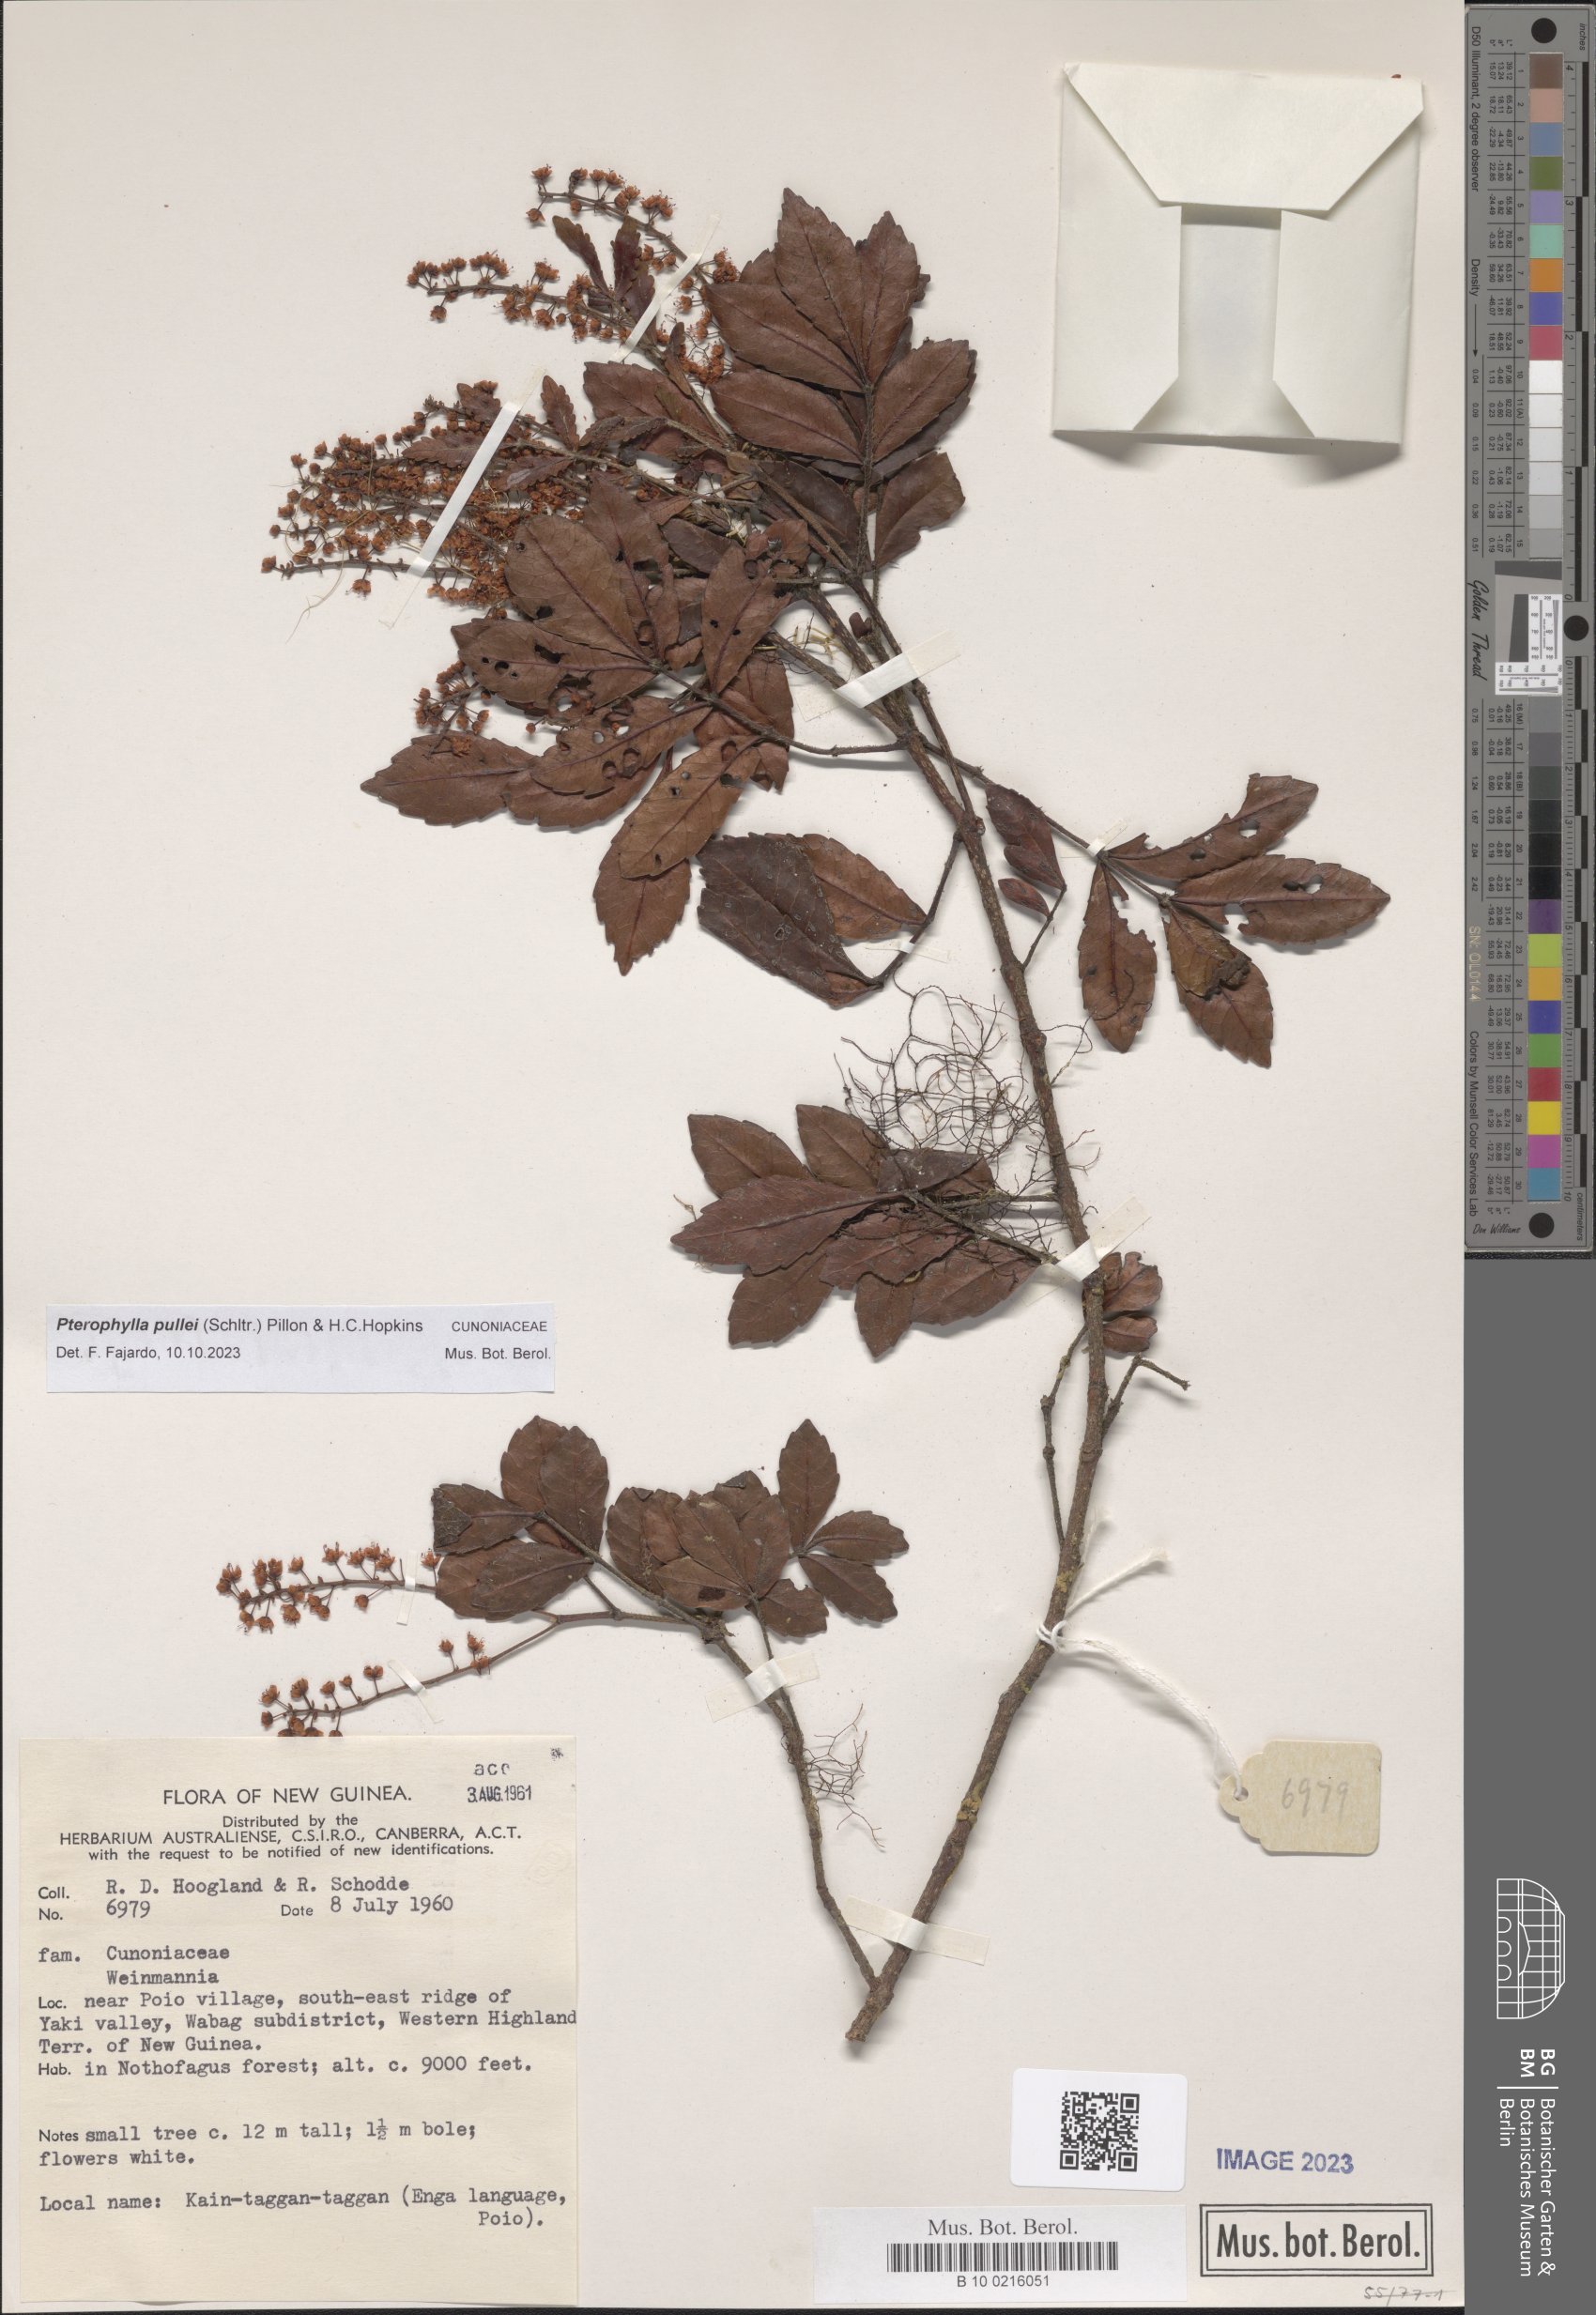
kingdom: Plantae
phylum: Tracheophyta
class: Magnoliopsida
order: Oxalidales
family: Cunoniaceae
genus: Pterophylla
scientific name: Pterophylla pullei
